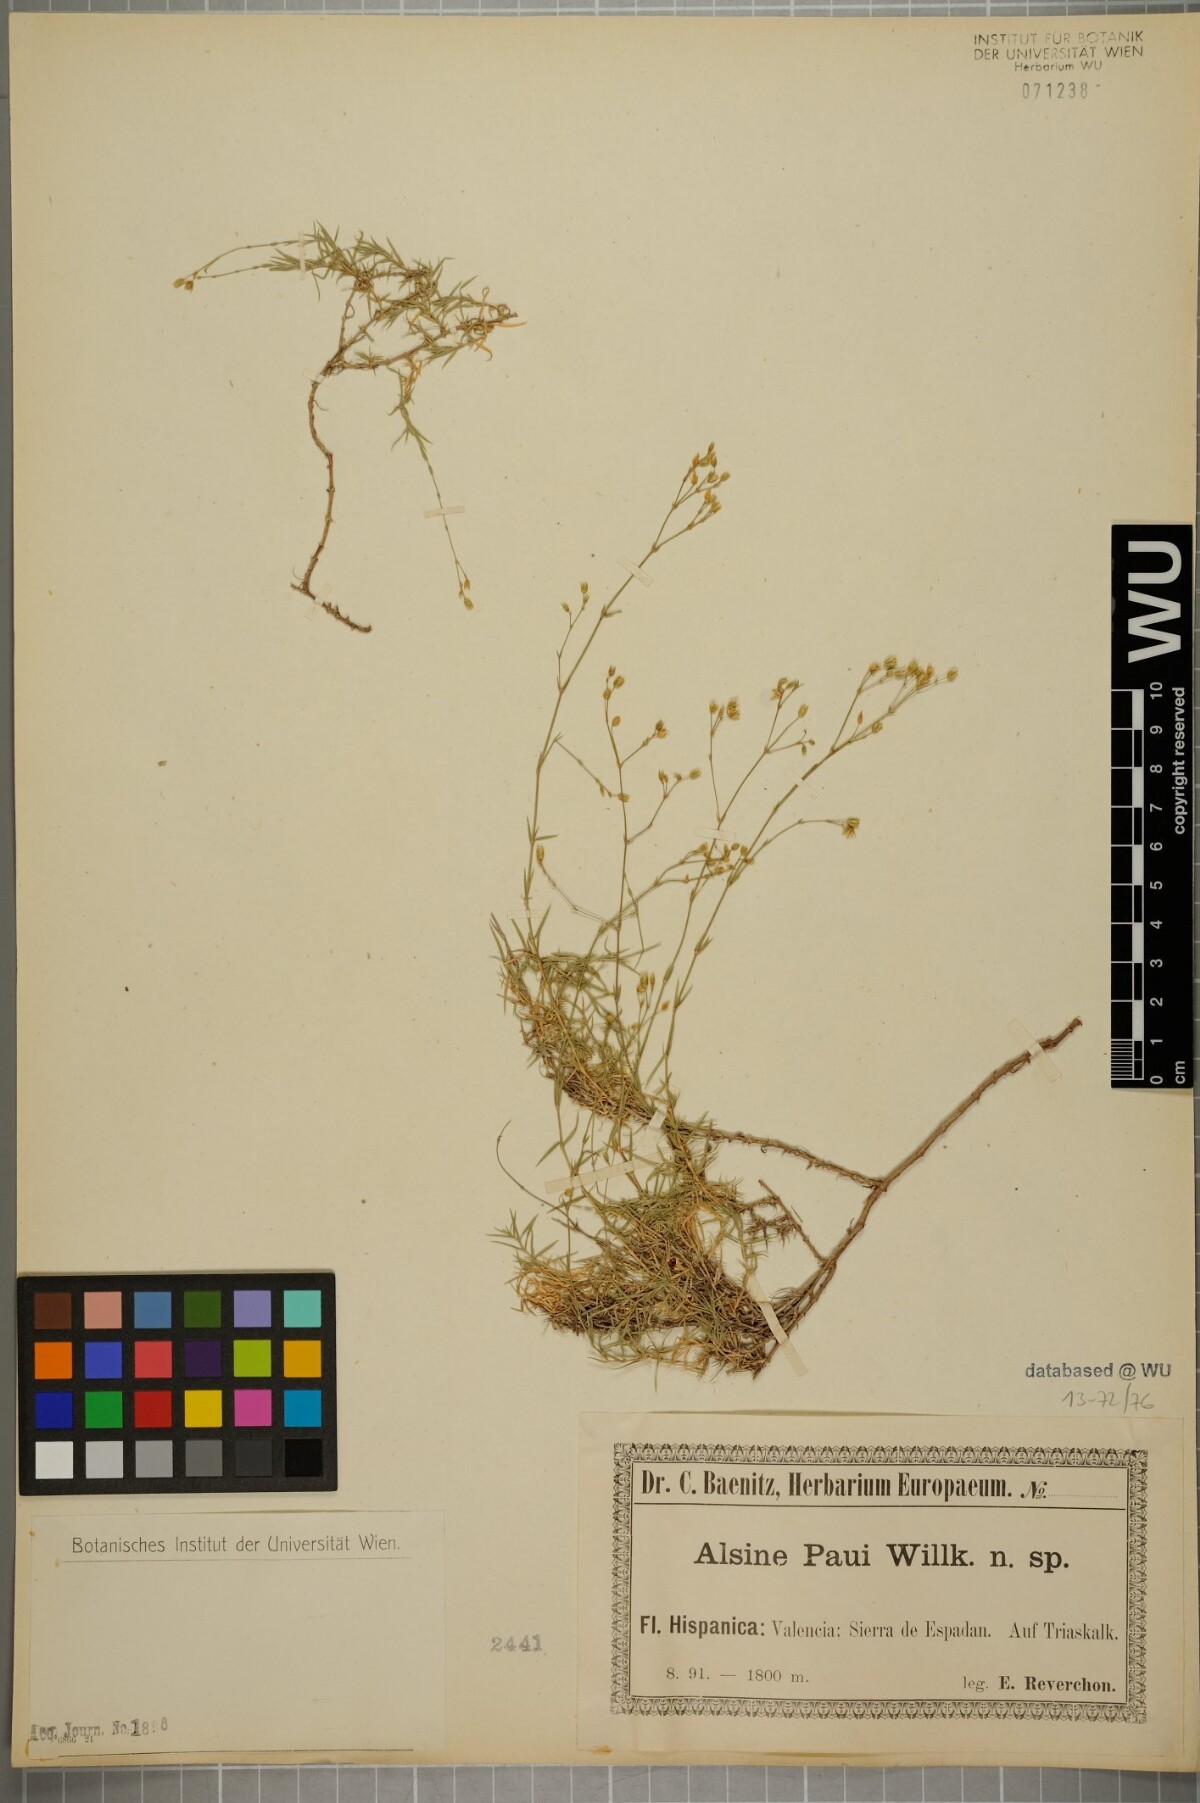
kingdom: Plantae
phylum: Tracheophyta
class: Magnoliopsida
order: Caryophyllales
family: Caryophyllaceae
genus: Facchinia
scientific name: Facchinia valentina
